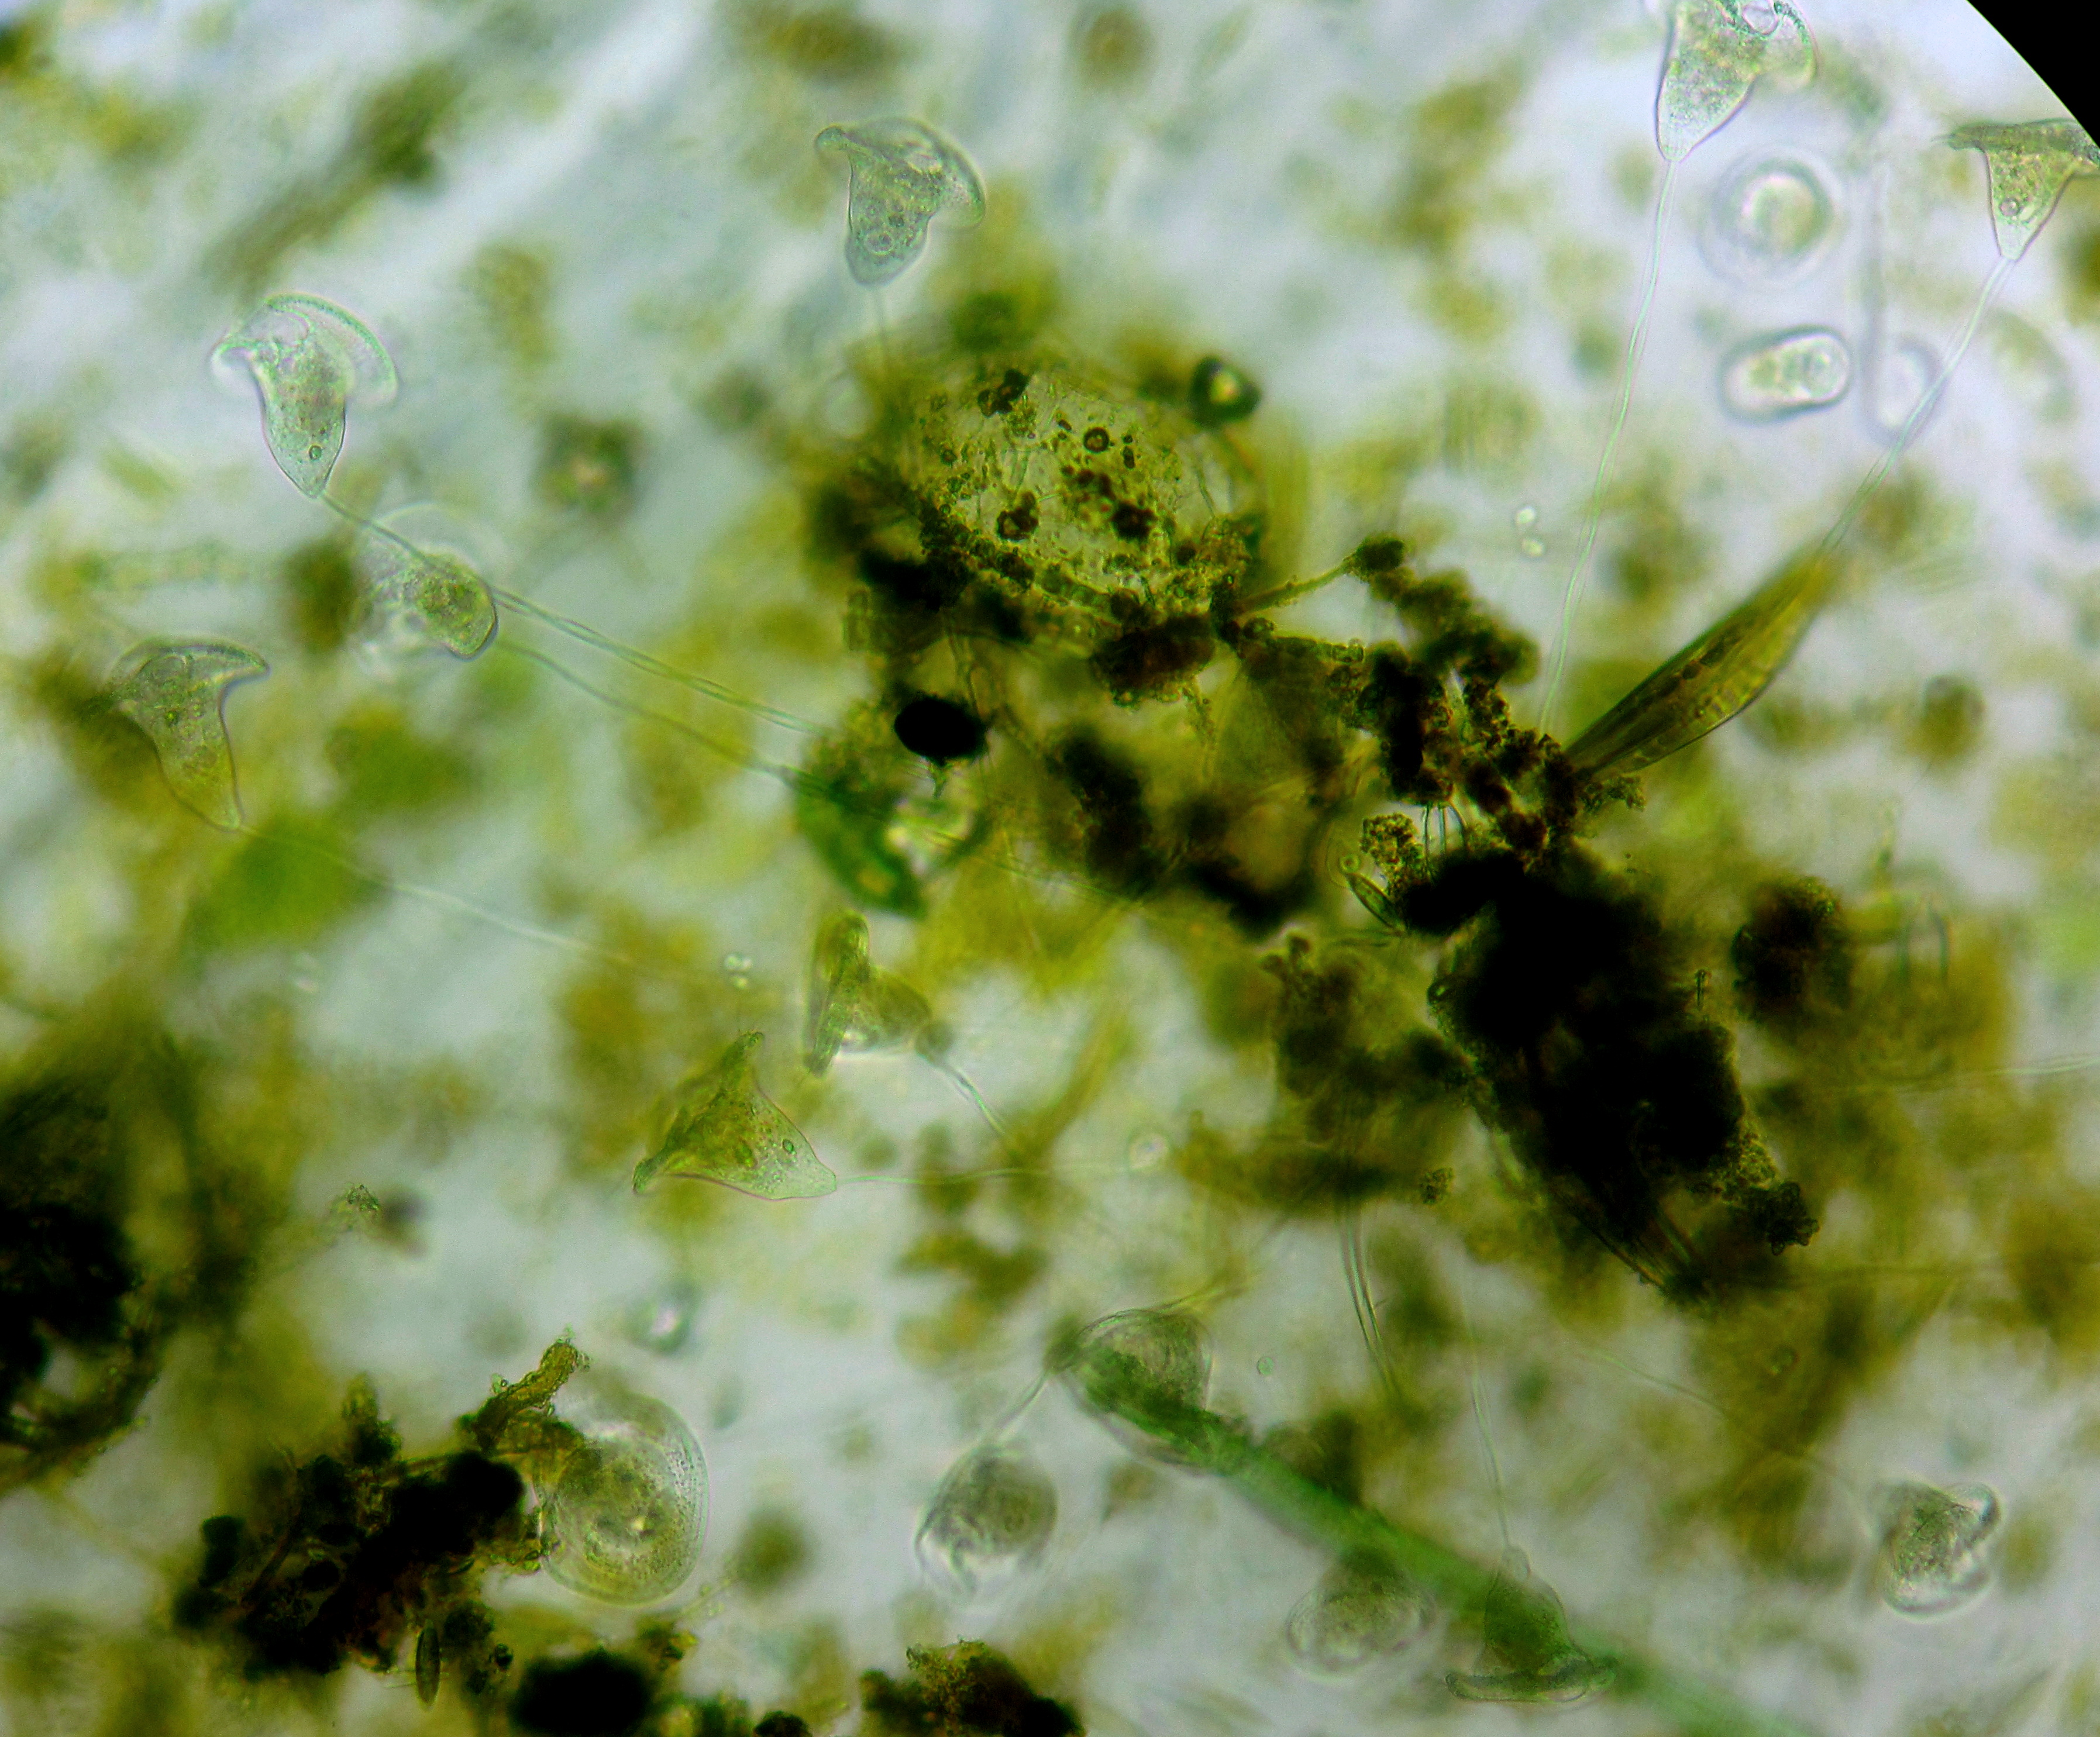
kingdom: Chromista
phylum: Ciliophora
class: Oligohymenophorea
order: Peritrichida
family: Vorticellidae
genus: Vorticella
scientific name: Vorticella convallaria
